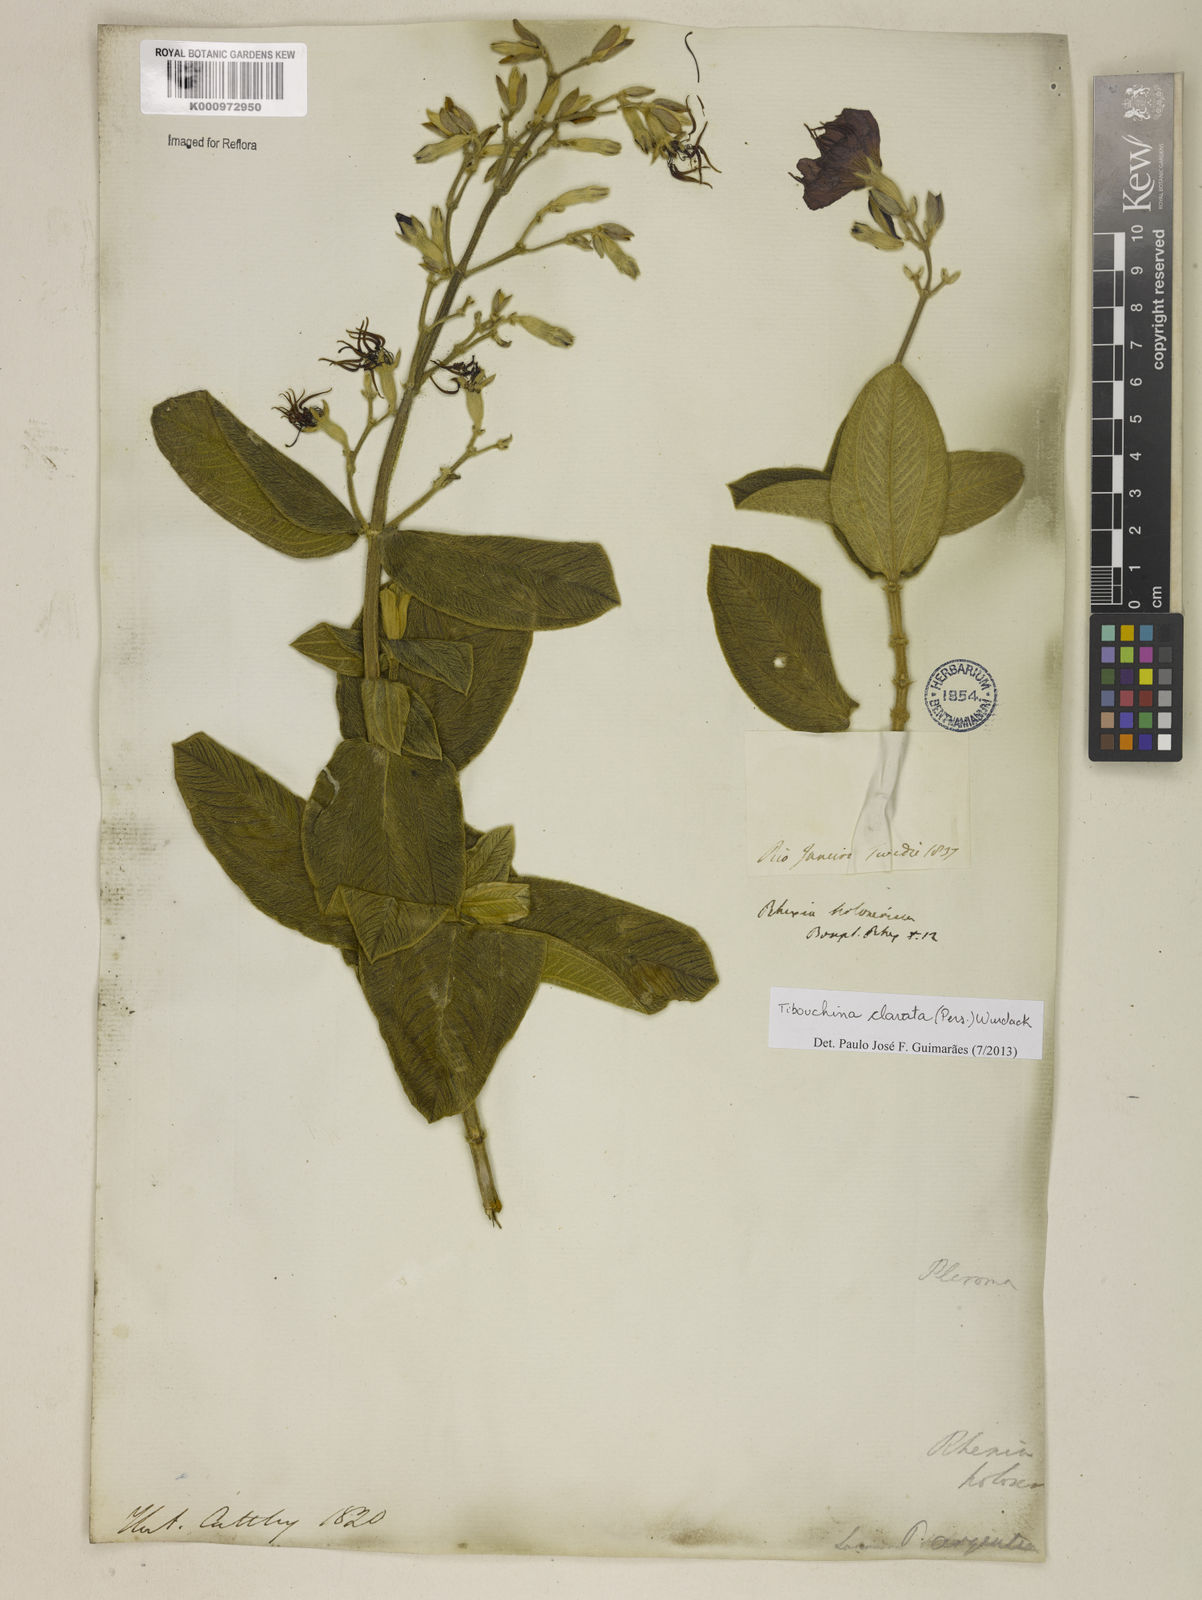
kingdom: Plantae
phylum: Tracheophyta
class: Magnoliopsida
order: Myrtales
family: Melastomataceae
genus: Pleroma
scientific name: Pleroma clavatum
